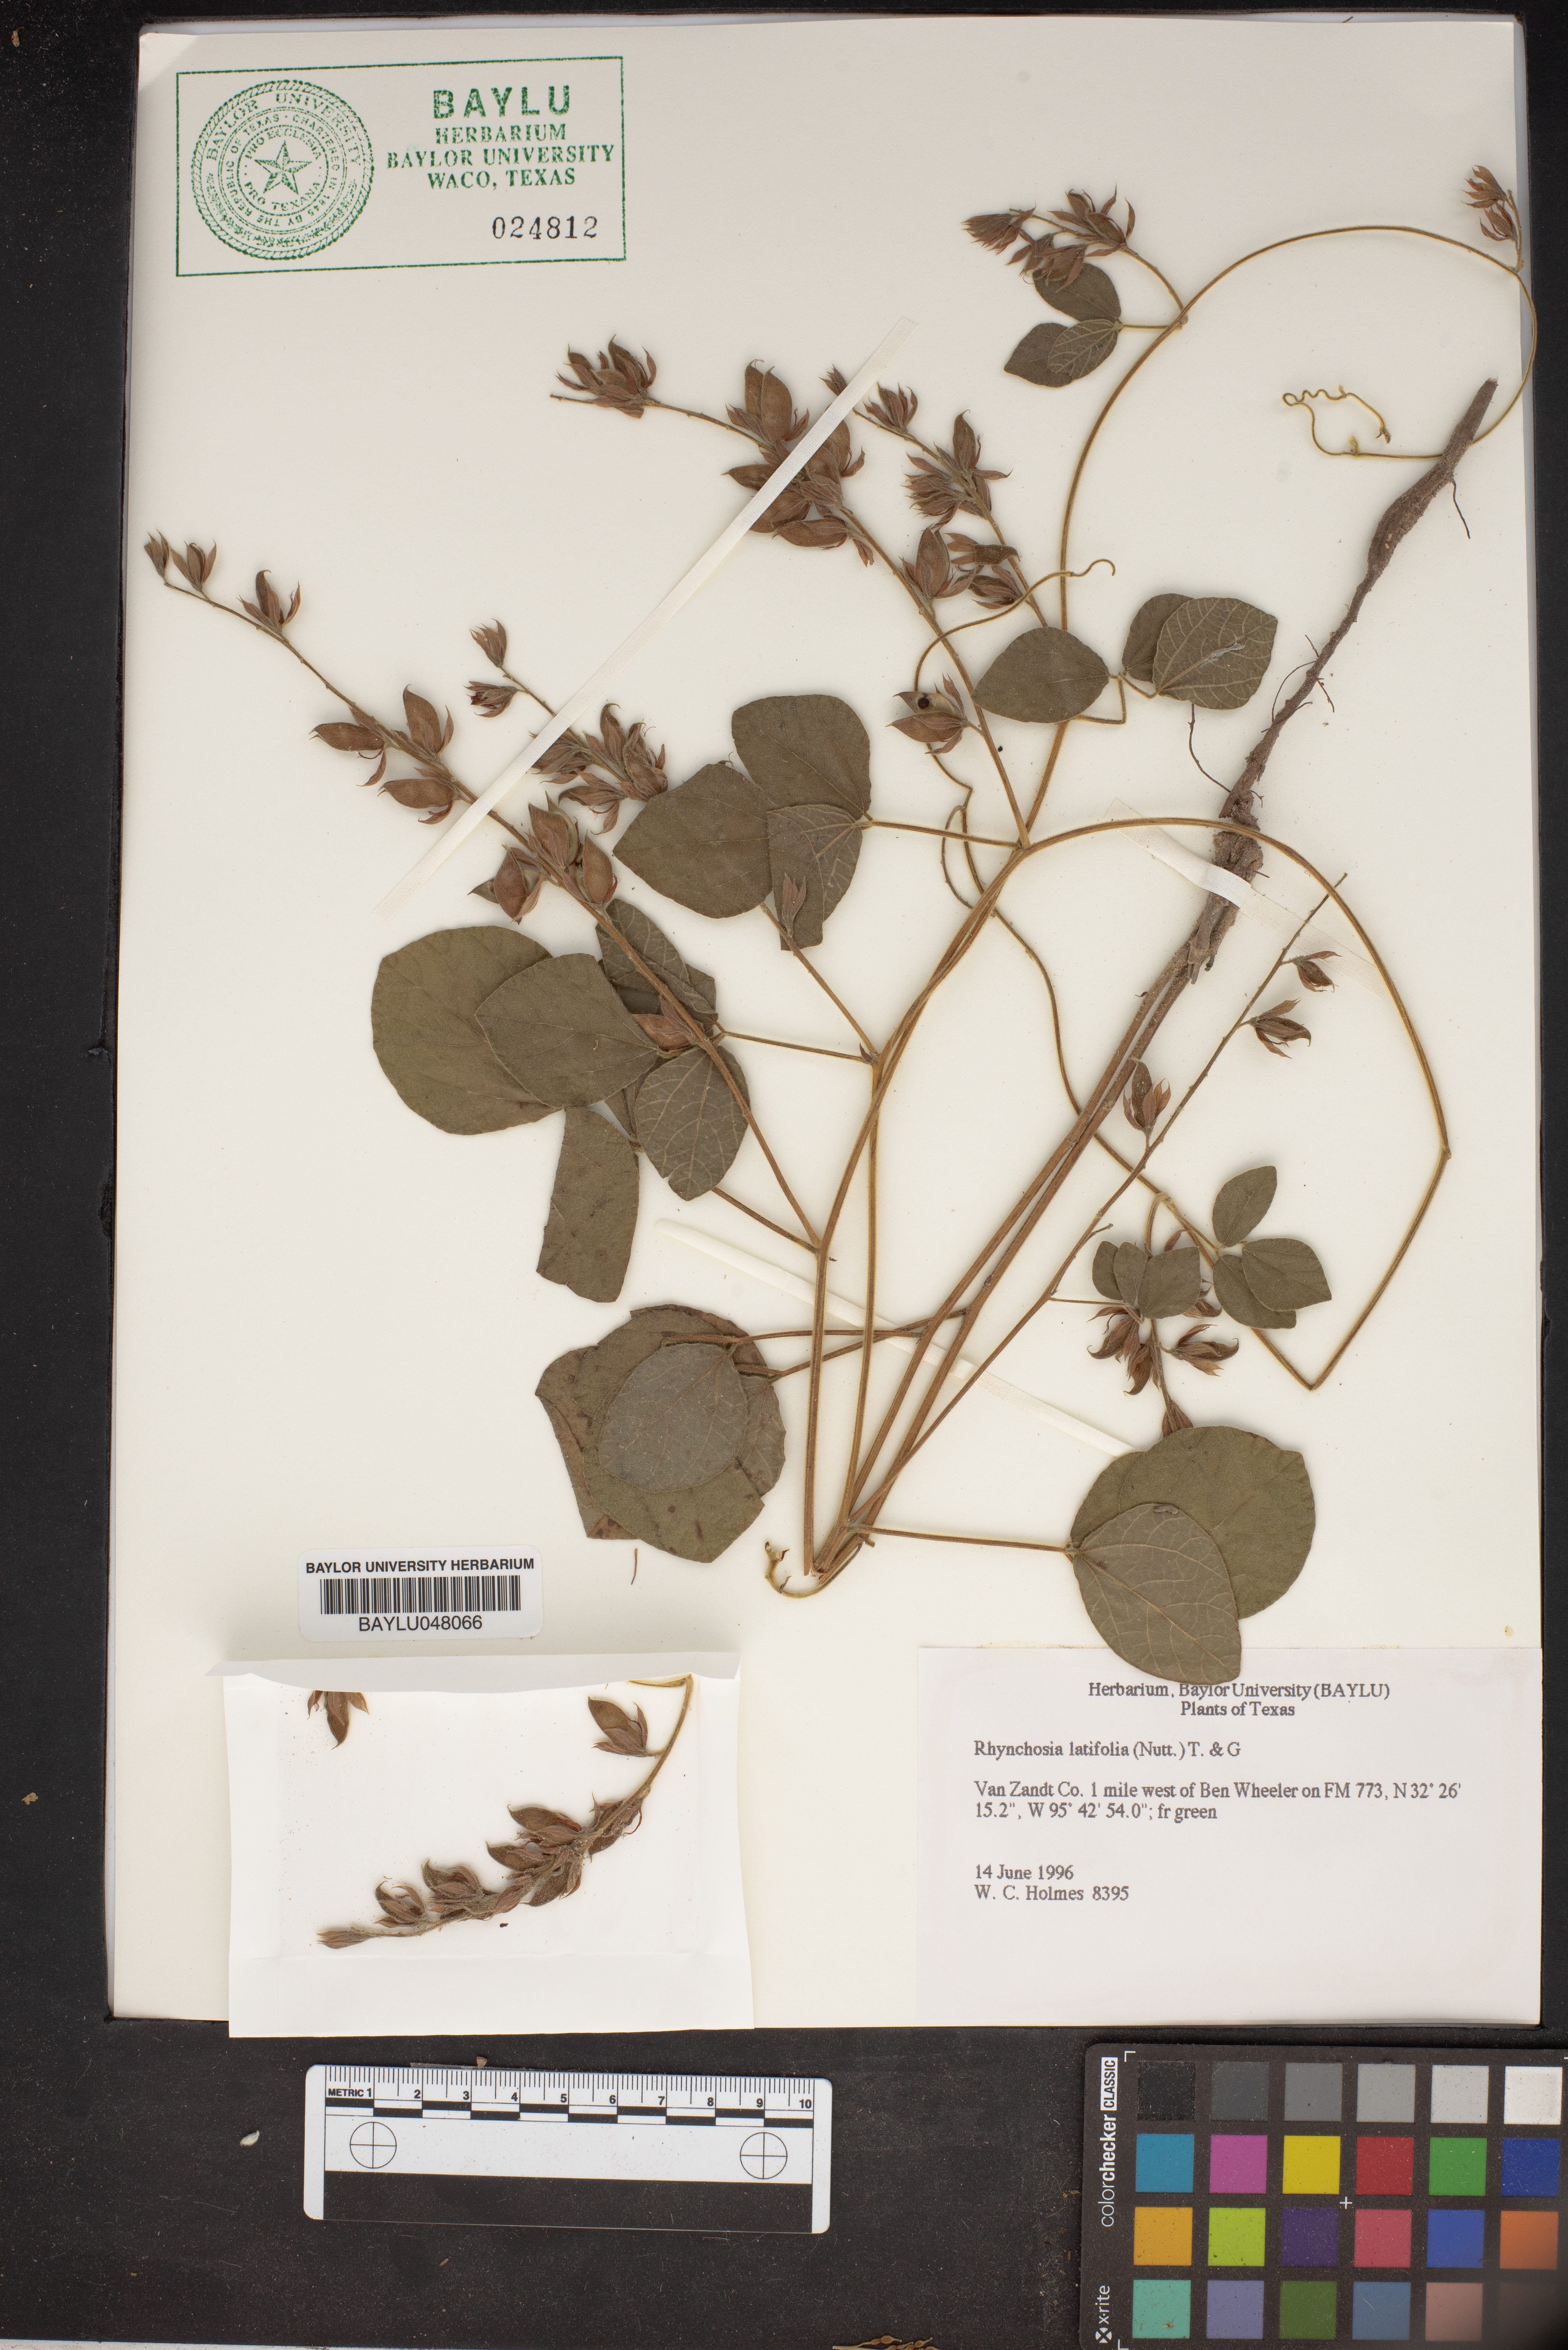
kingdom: Plantae
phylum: Tracheophyta
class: Magnoliopsida
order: Fabales
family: Fabaceae
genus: Rhynchosia
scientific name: Rhynchosia latifolia
